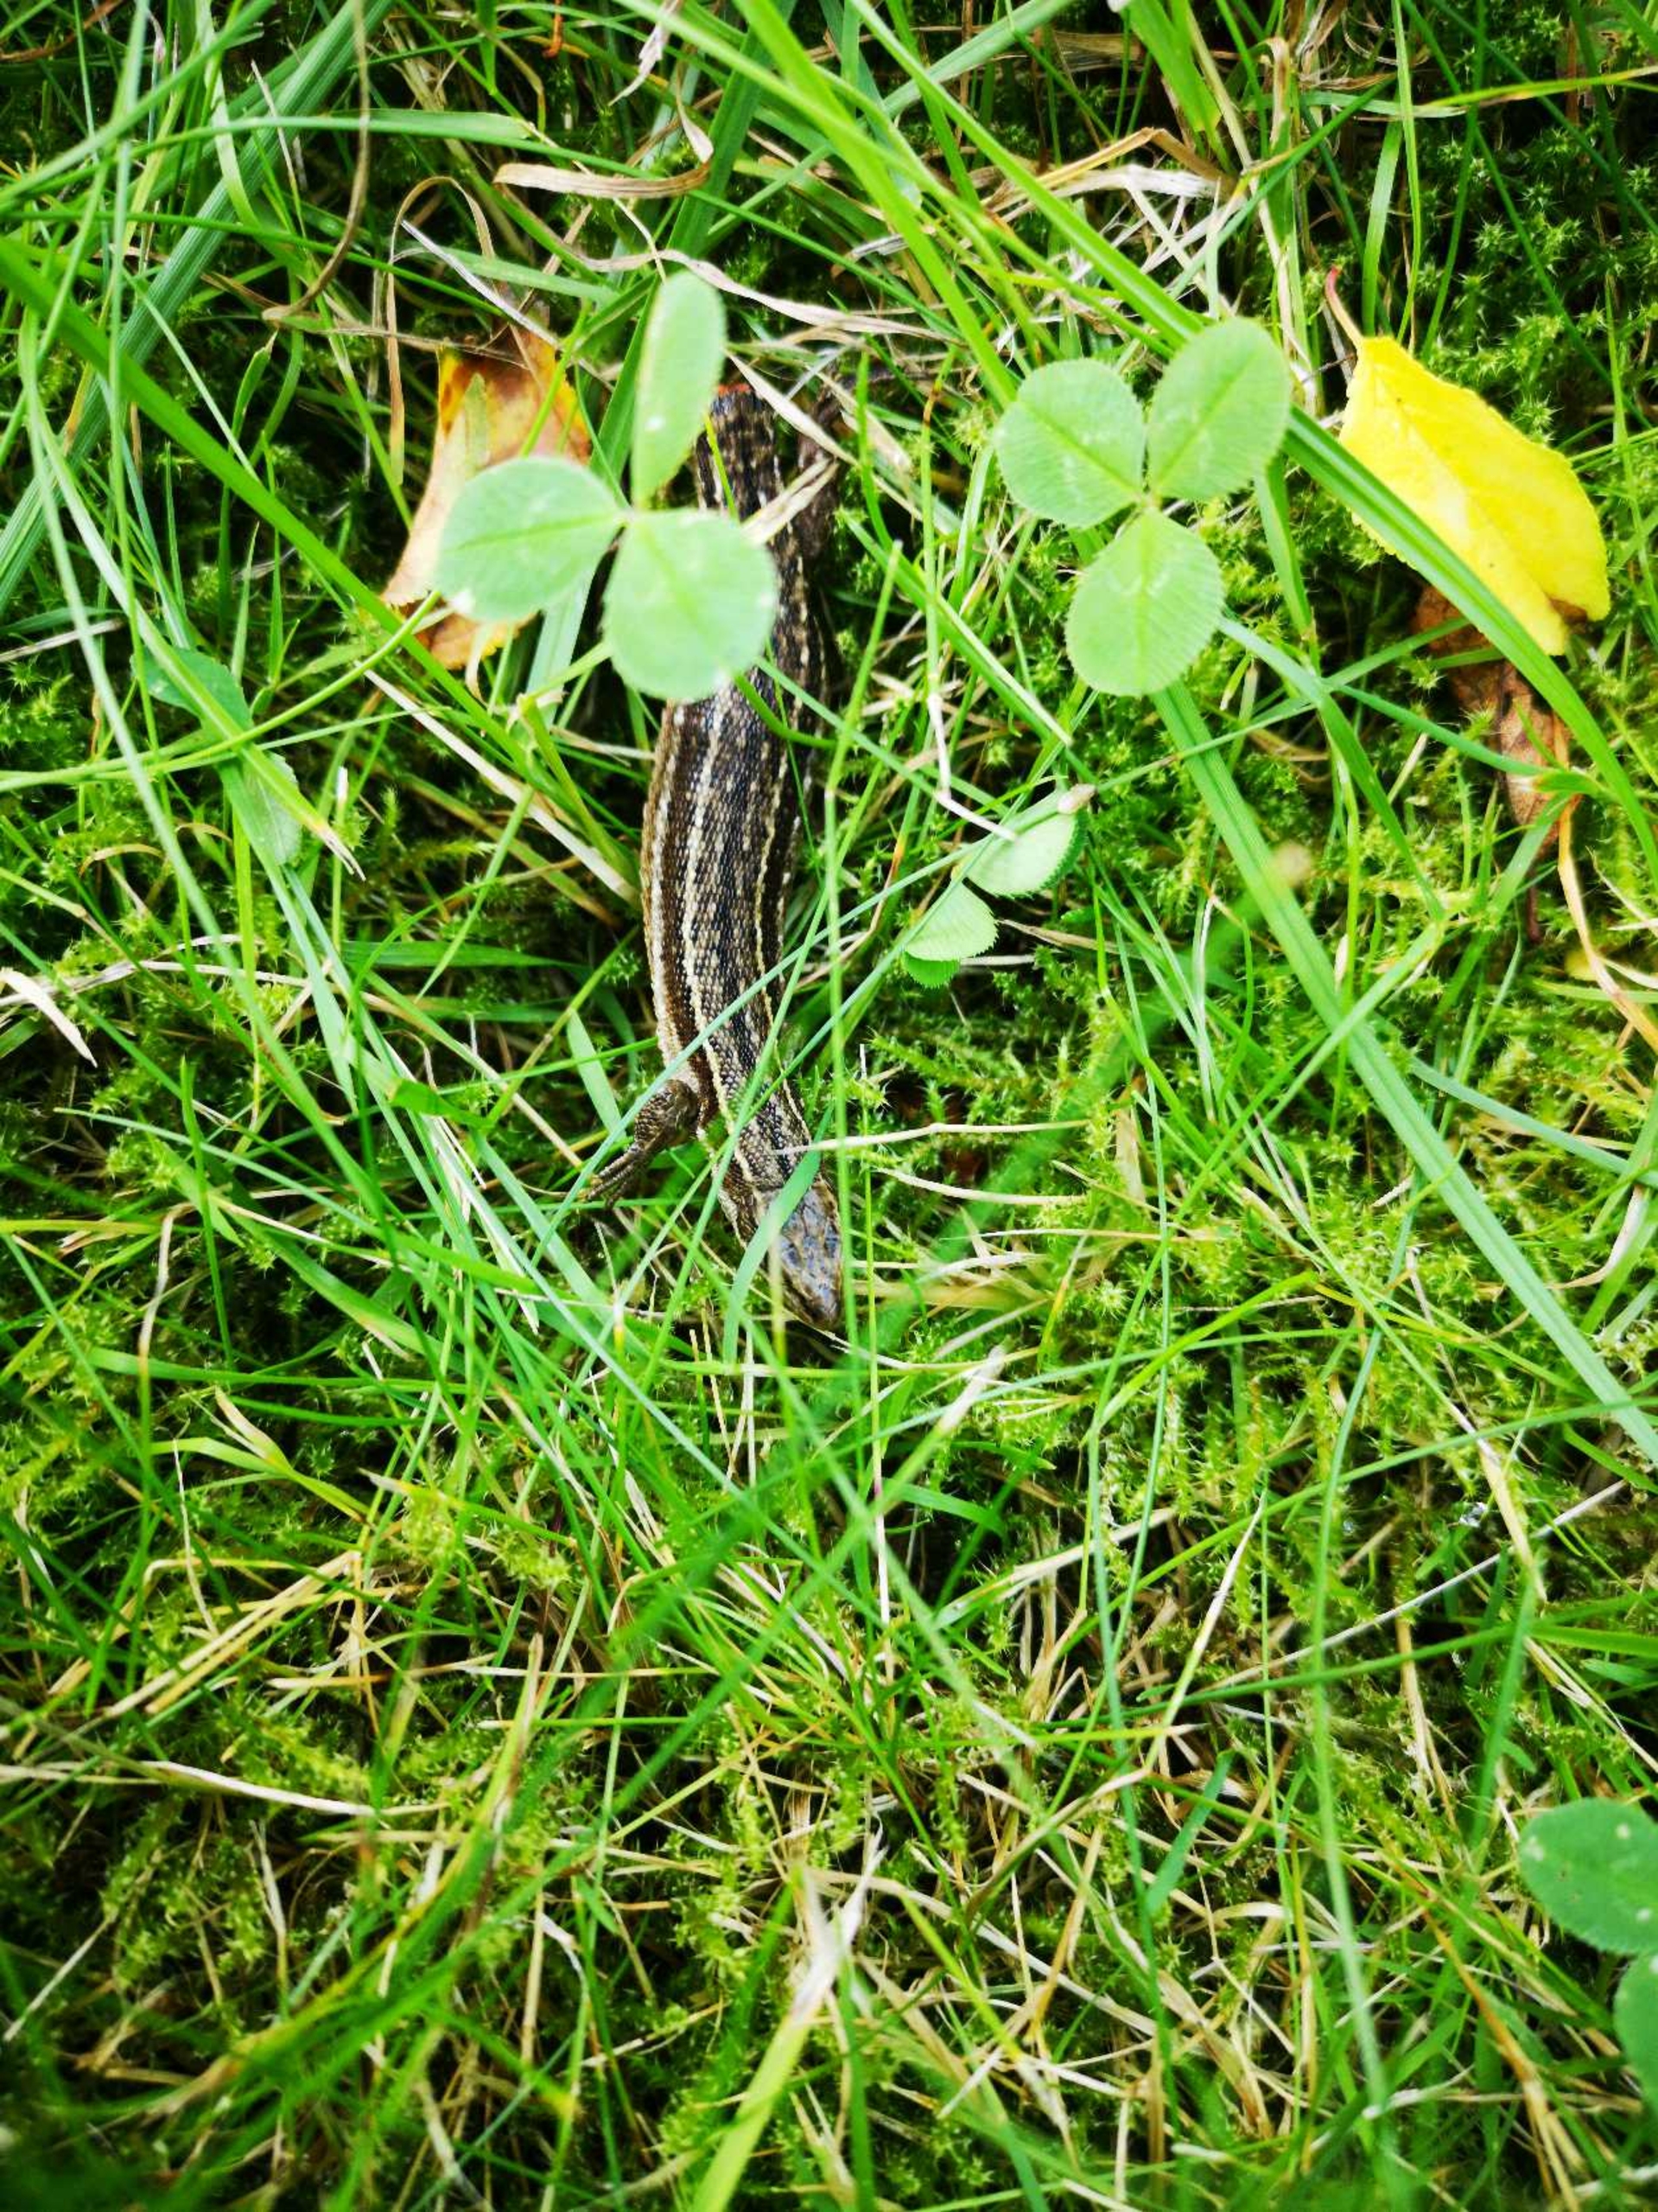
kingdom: Animalia
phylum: Chordata
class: Squamata
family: Lacertidae
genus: Zootoca
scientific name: Zootoca vivipara
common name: Skovfirben
